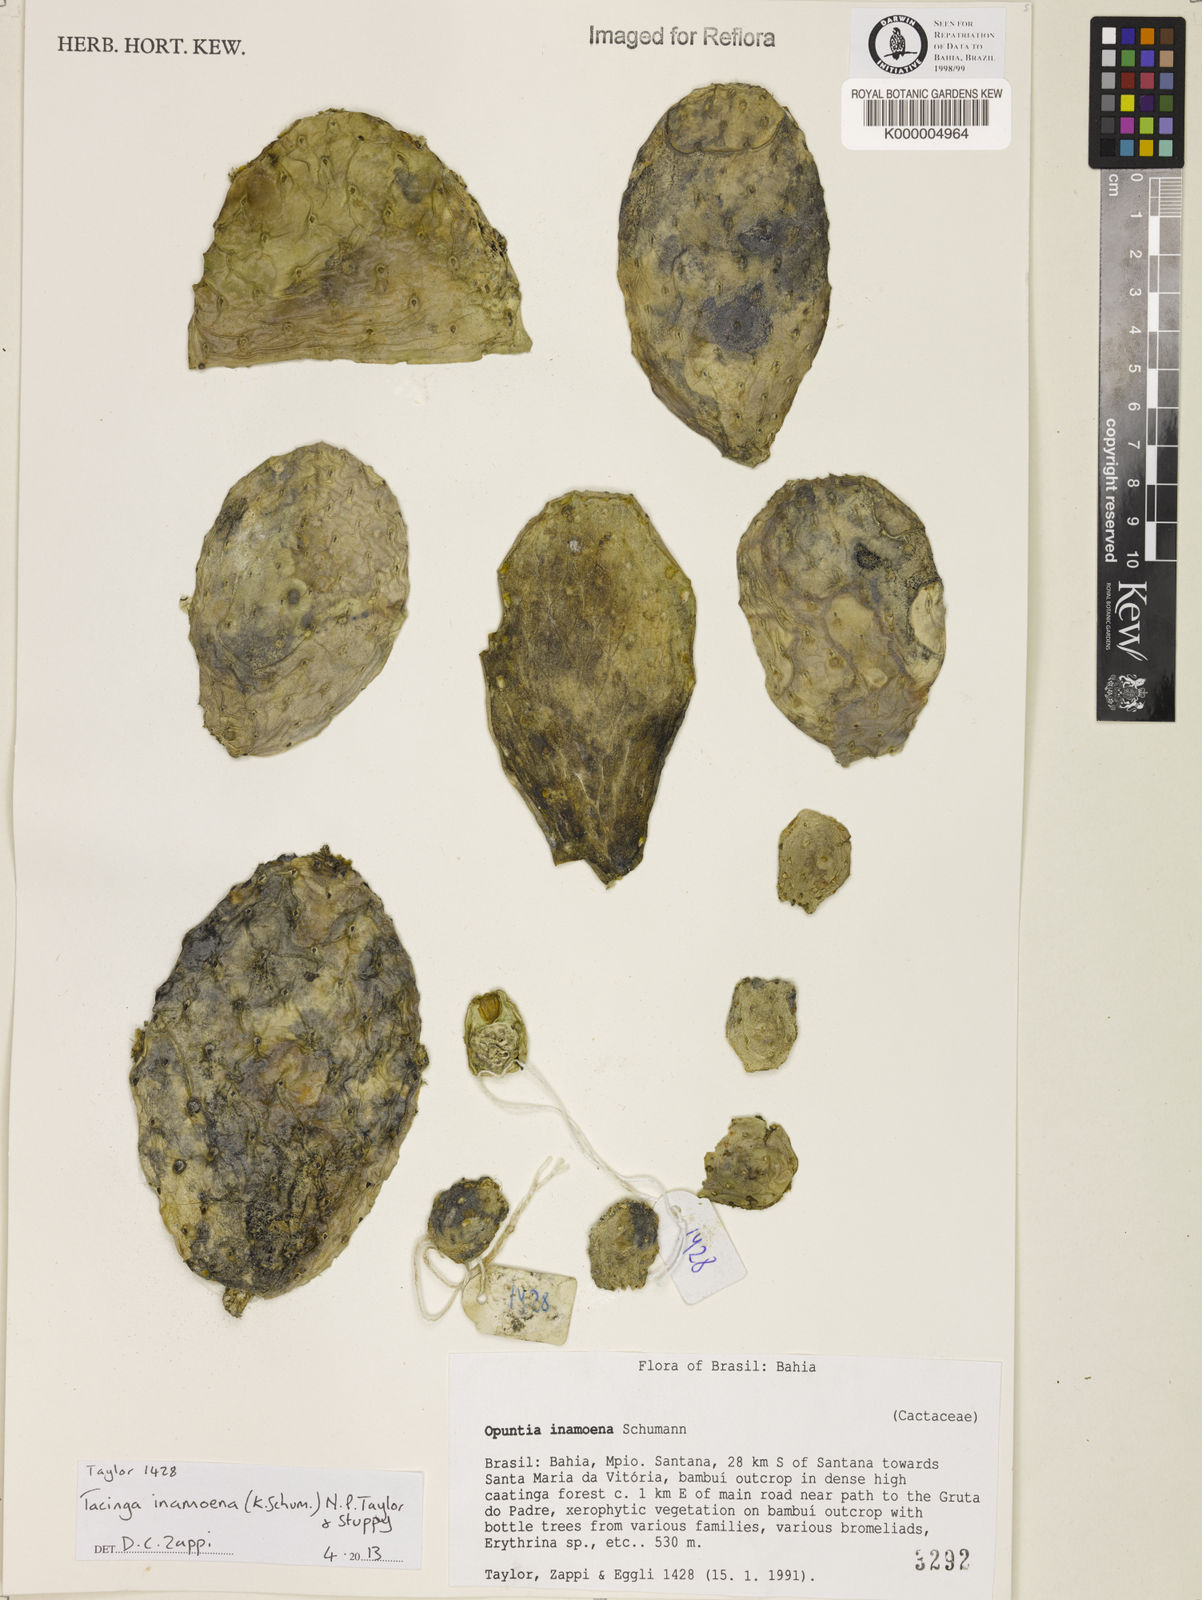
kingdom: Plantae
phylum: Tracheophyta
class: Magnoliopsida
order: Caryophyllales
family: Cactaceae
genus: Tacinga
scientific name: Tacinga inamoena
